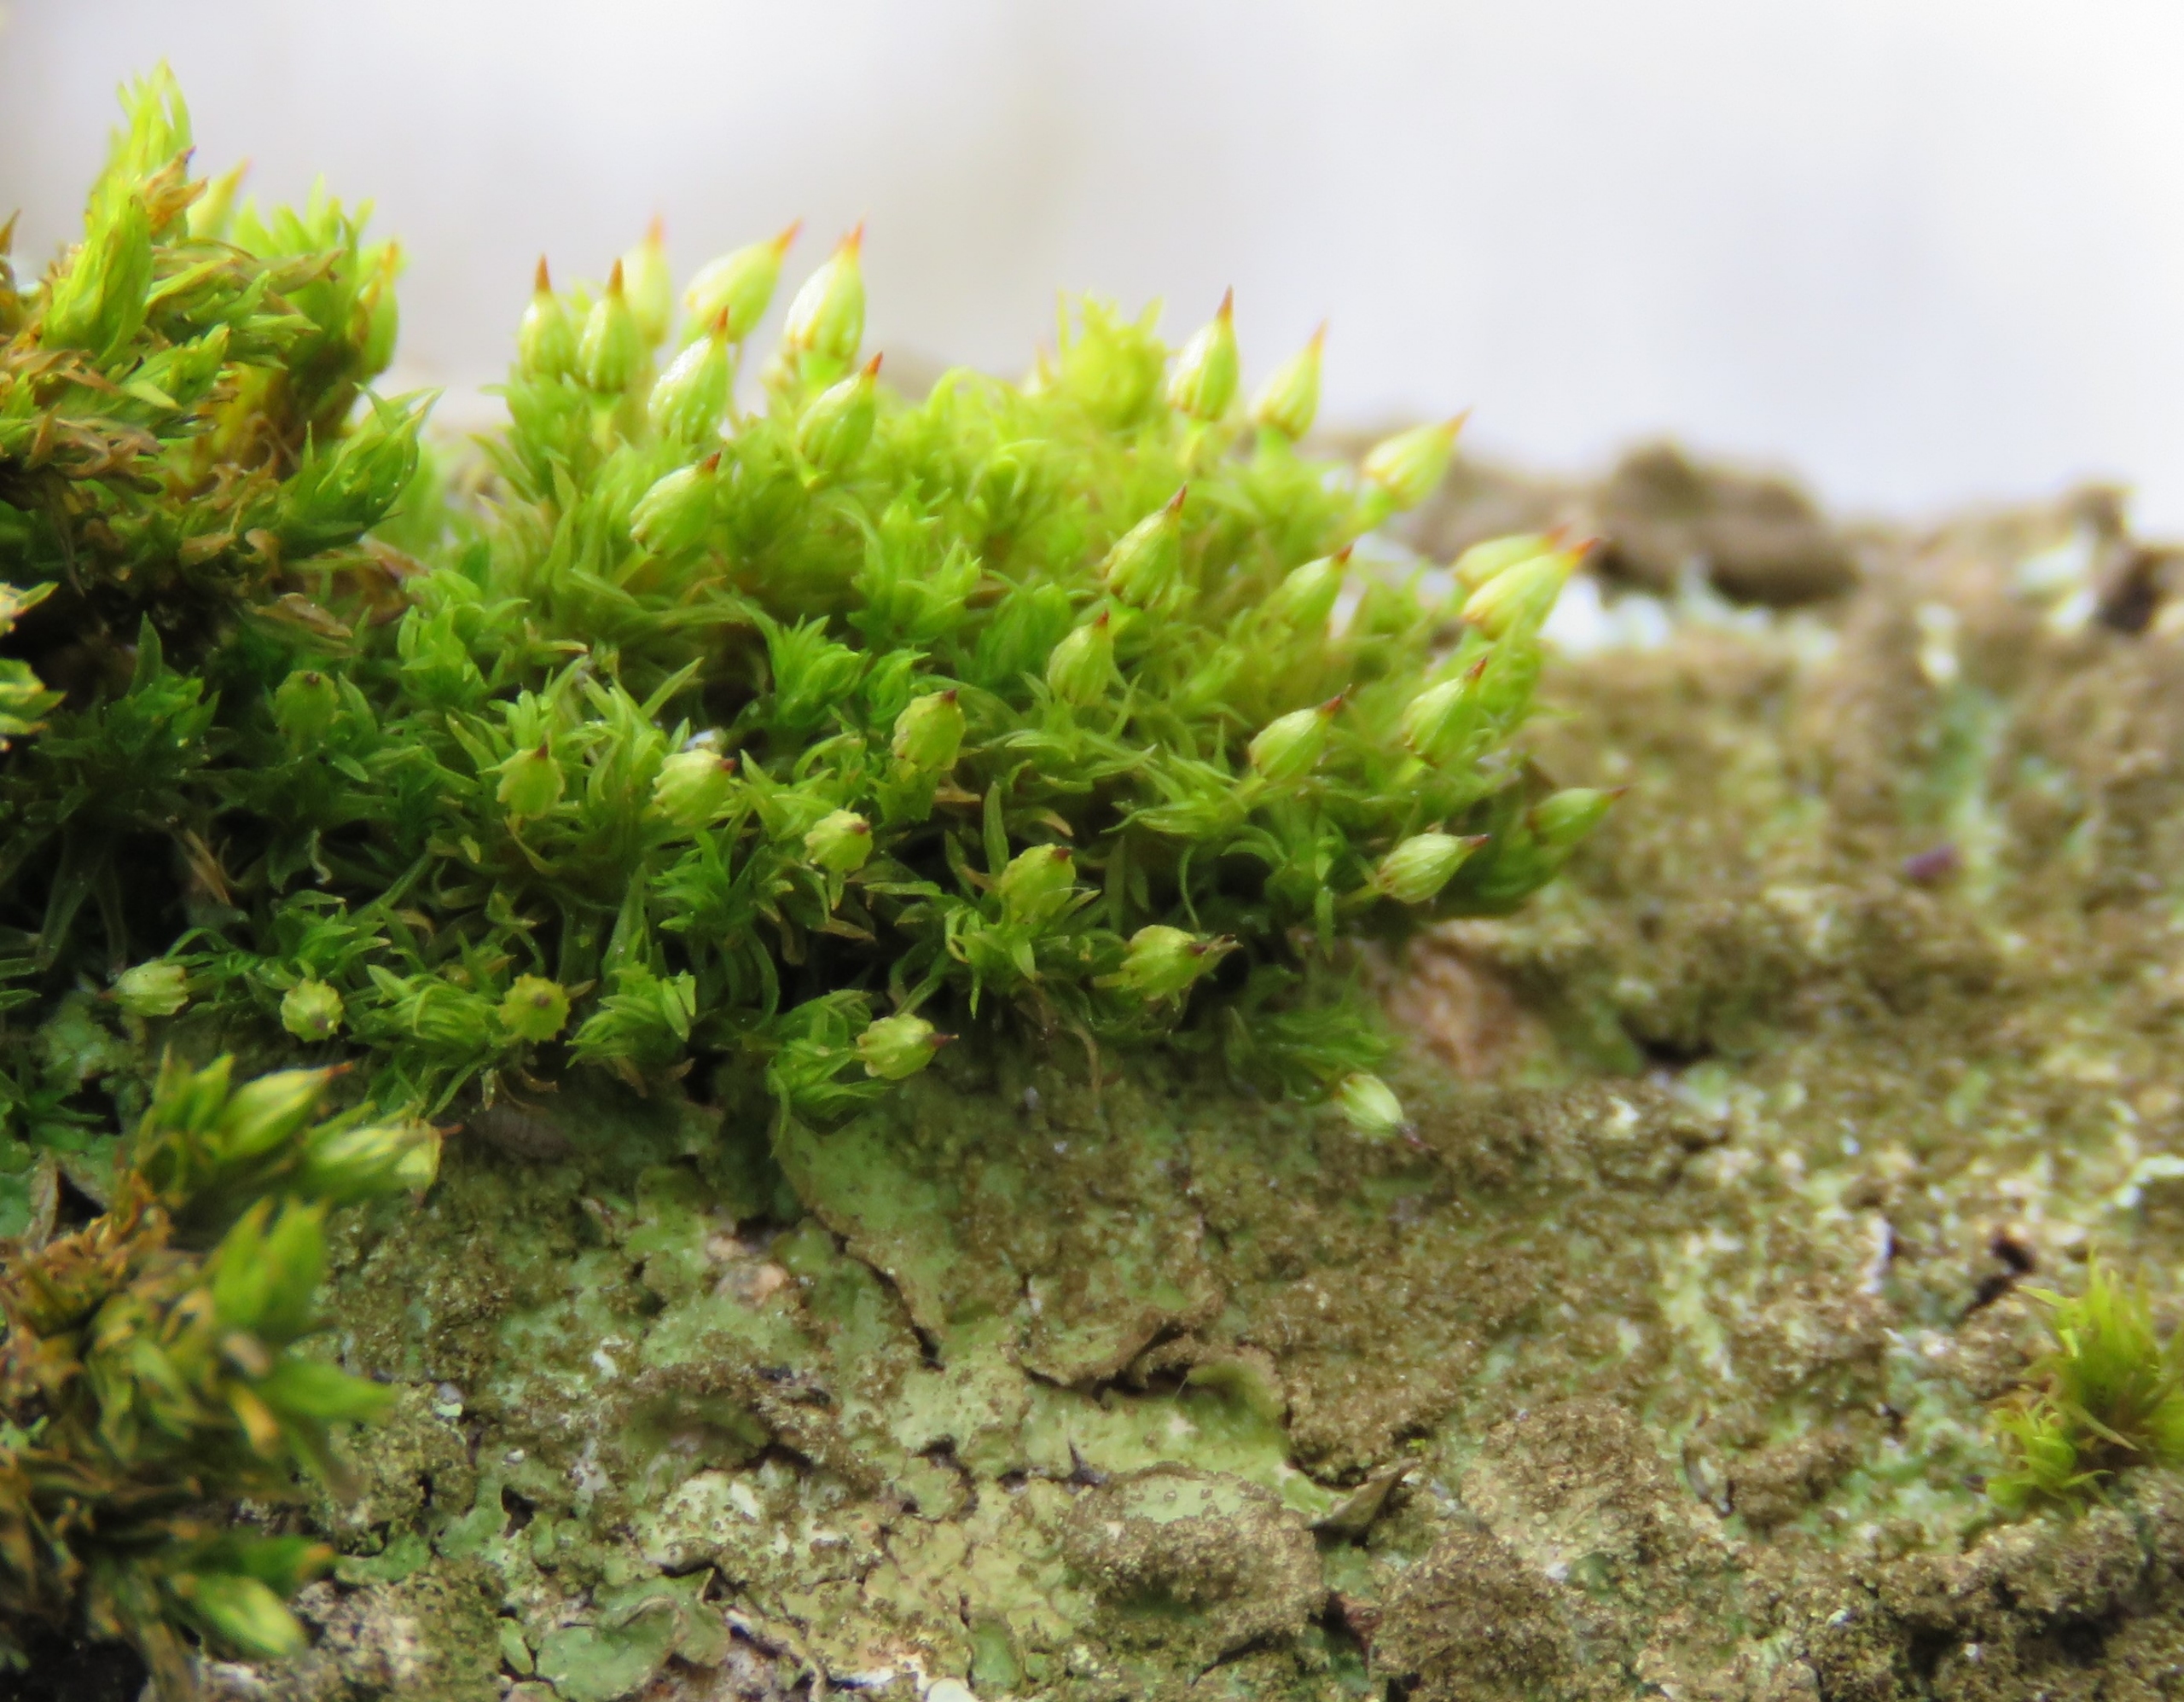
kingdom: Plantae
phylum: Bryophyta
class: Bryopsida
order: Orthotrichales
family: Orthotrichaceae
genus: Orthotrichum
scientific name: Orthotrichum pulchellum
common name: Smuk furehætte
